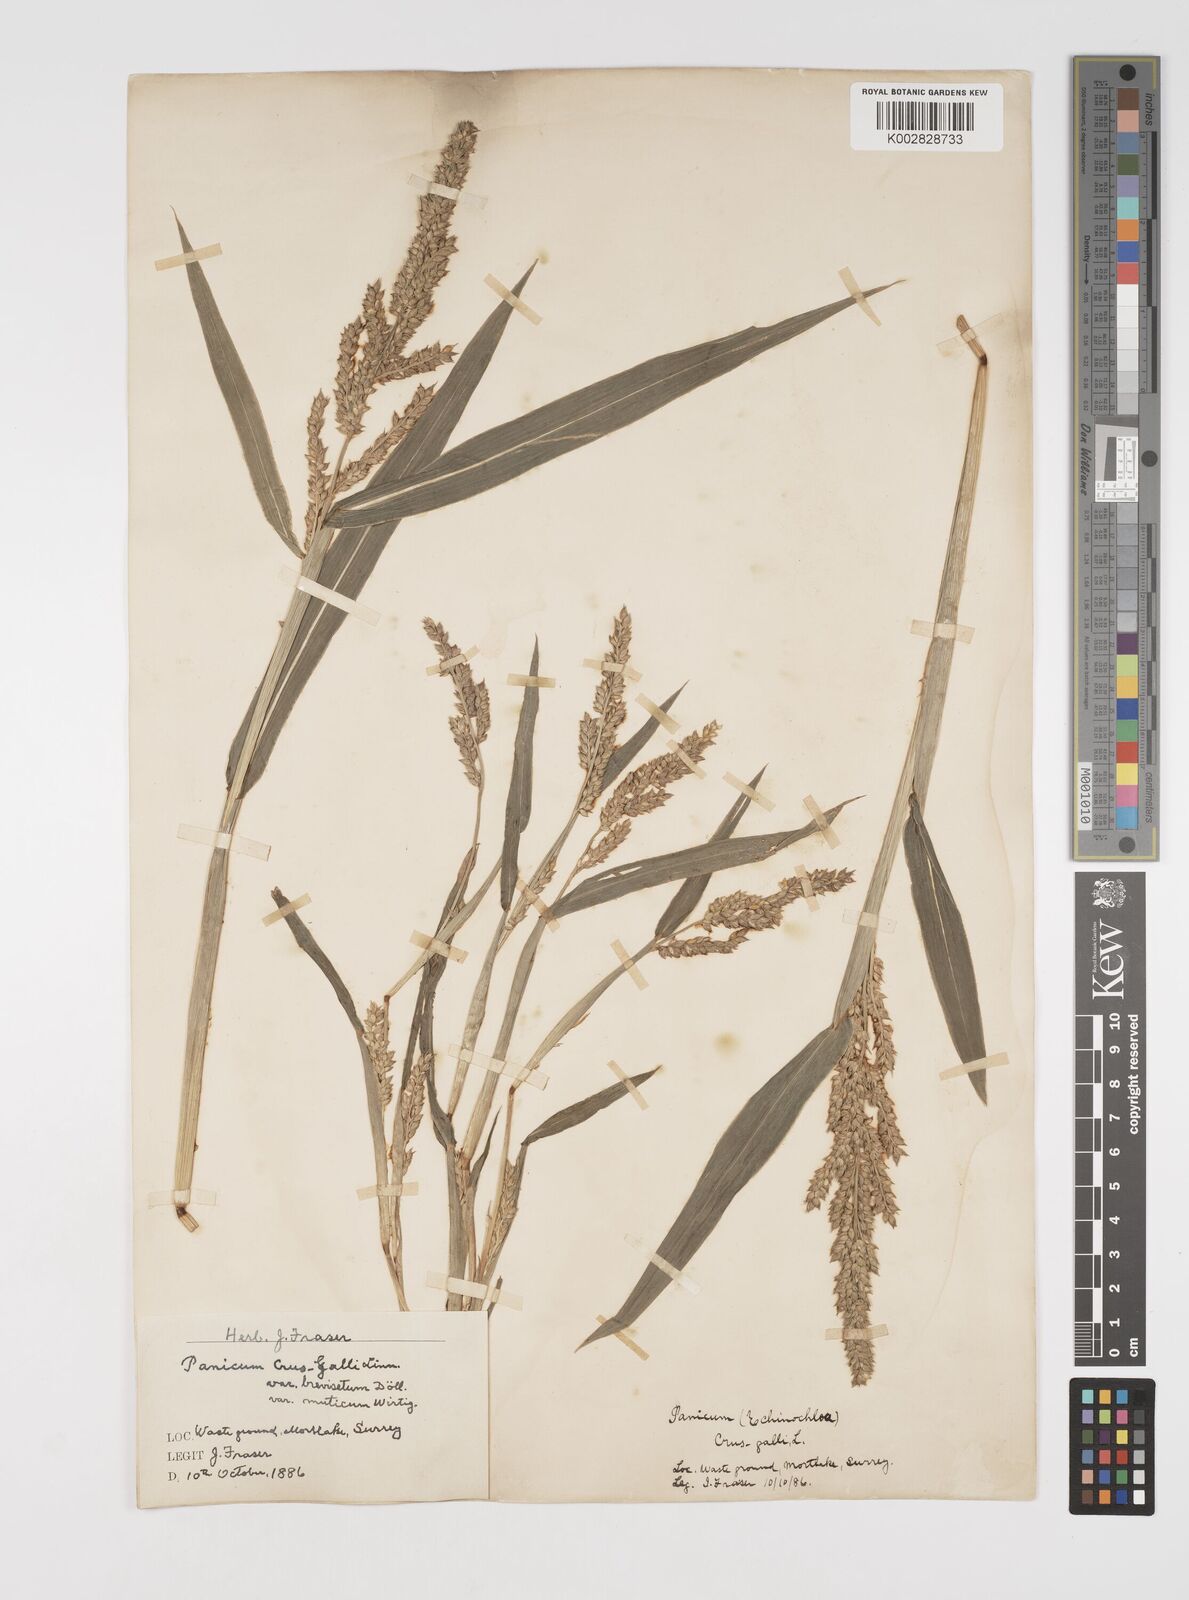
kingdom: Plantae
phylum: Tracheophyta
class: Liliopsida
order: Poales
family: Poaceae
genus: Echinochloa
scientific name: Echinochloa crus-galli
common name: Cockspur
